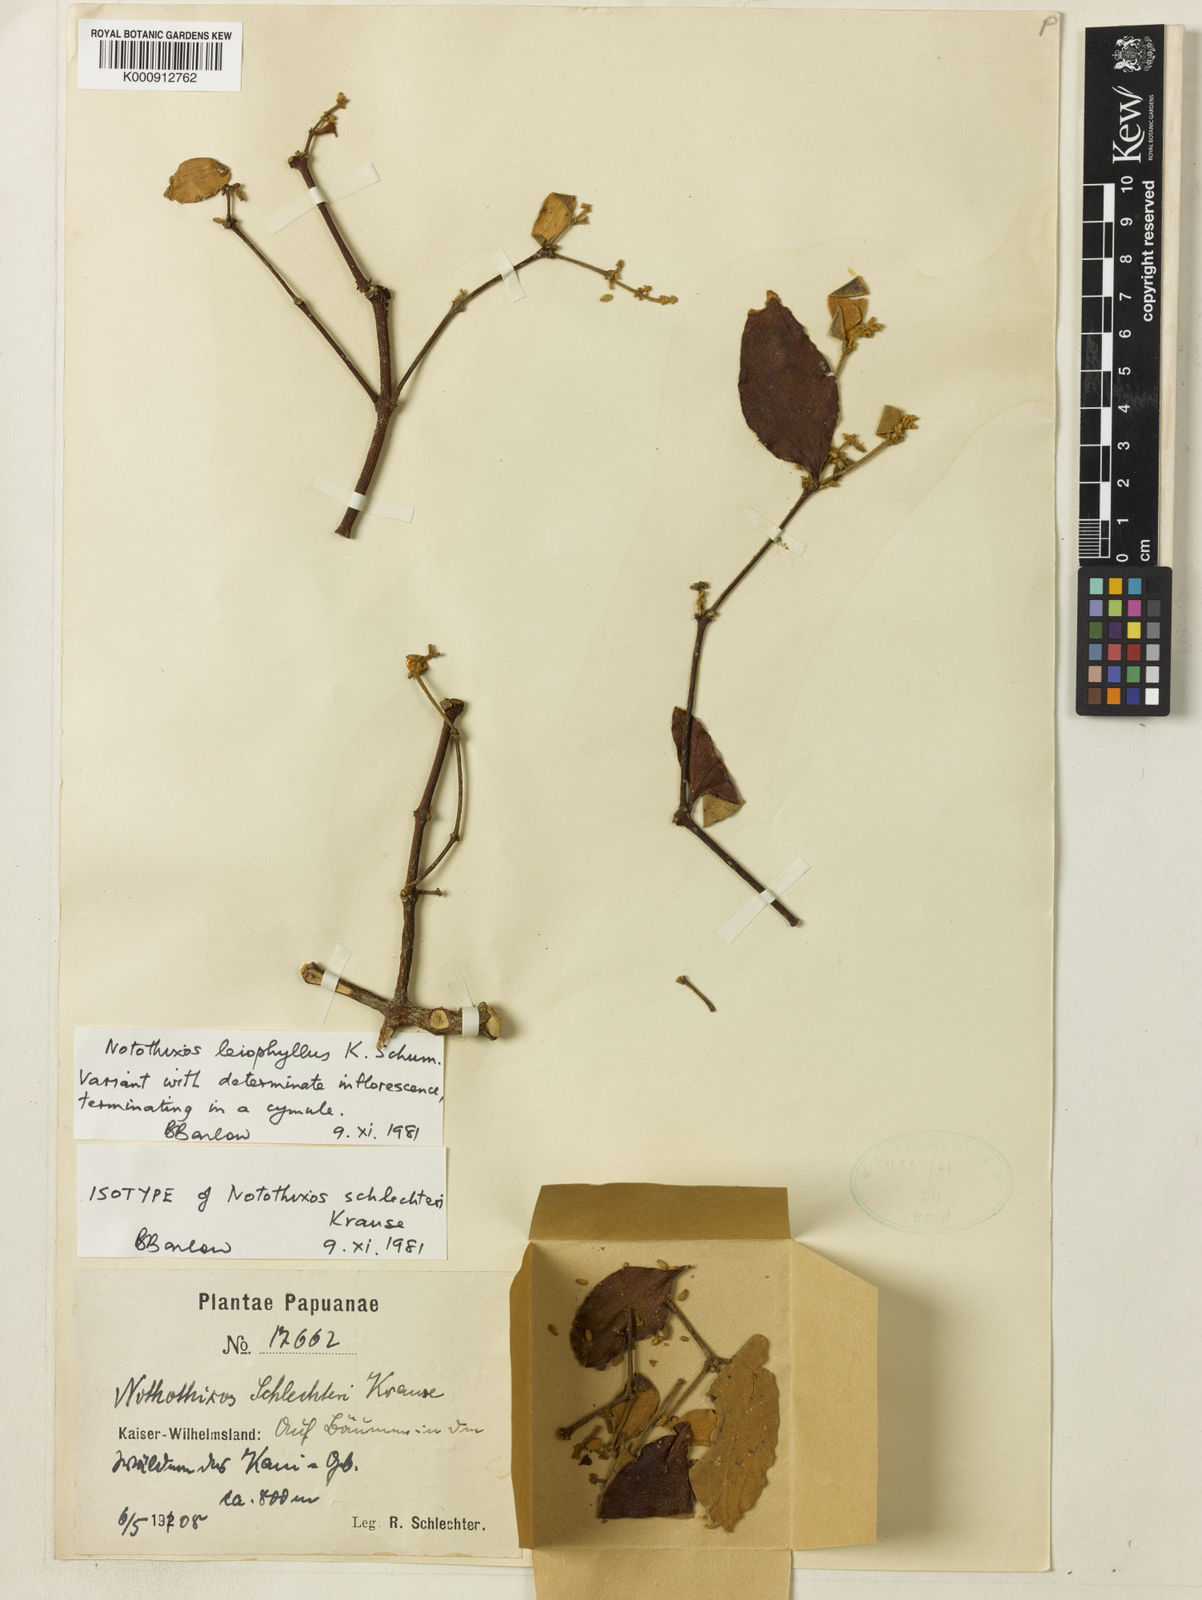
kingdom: Plantae
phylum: Tracheophyta
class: Magnoliopsida
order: Santalales
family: Viscaceae
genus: Notothixos
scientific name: Notothixos leiophyllus
